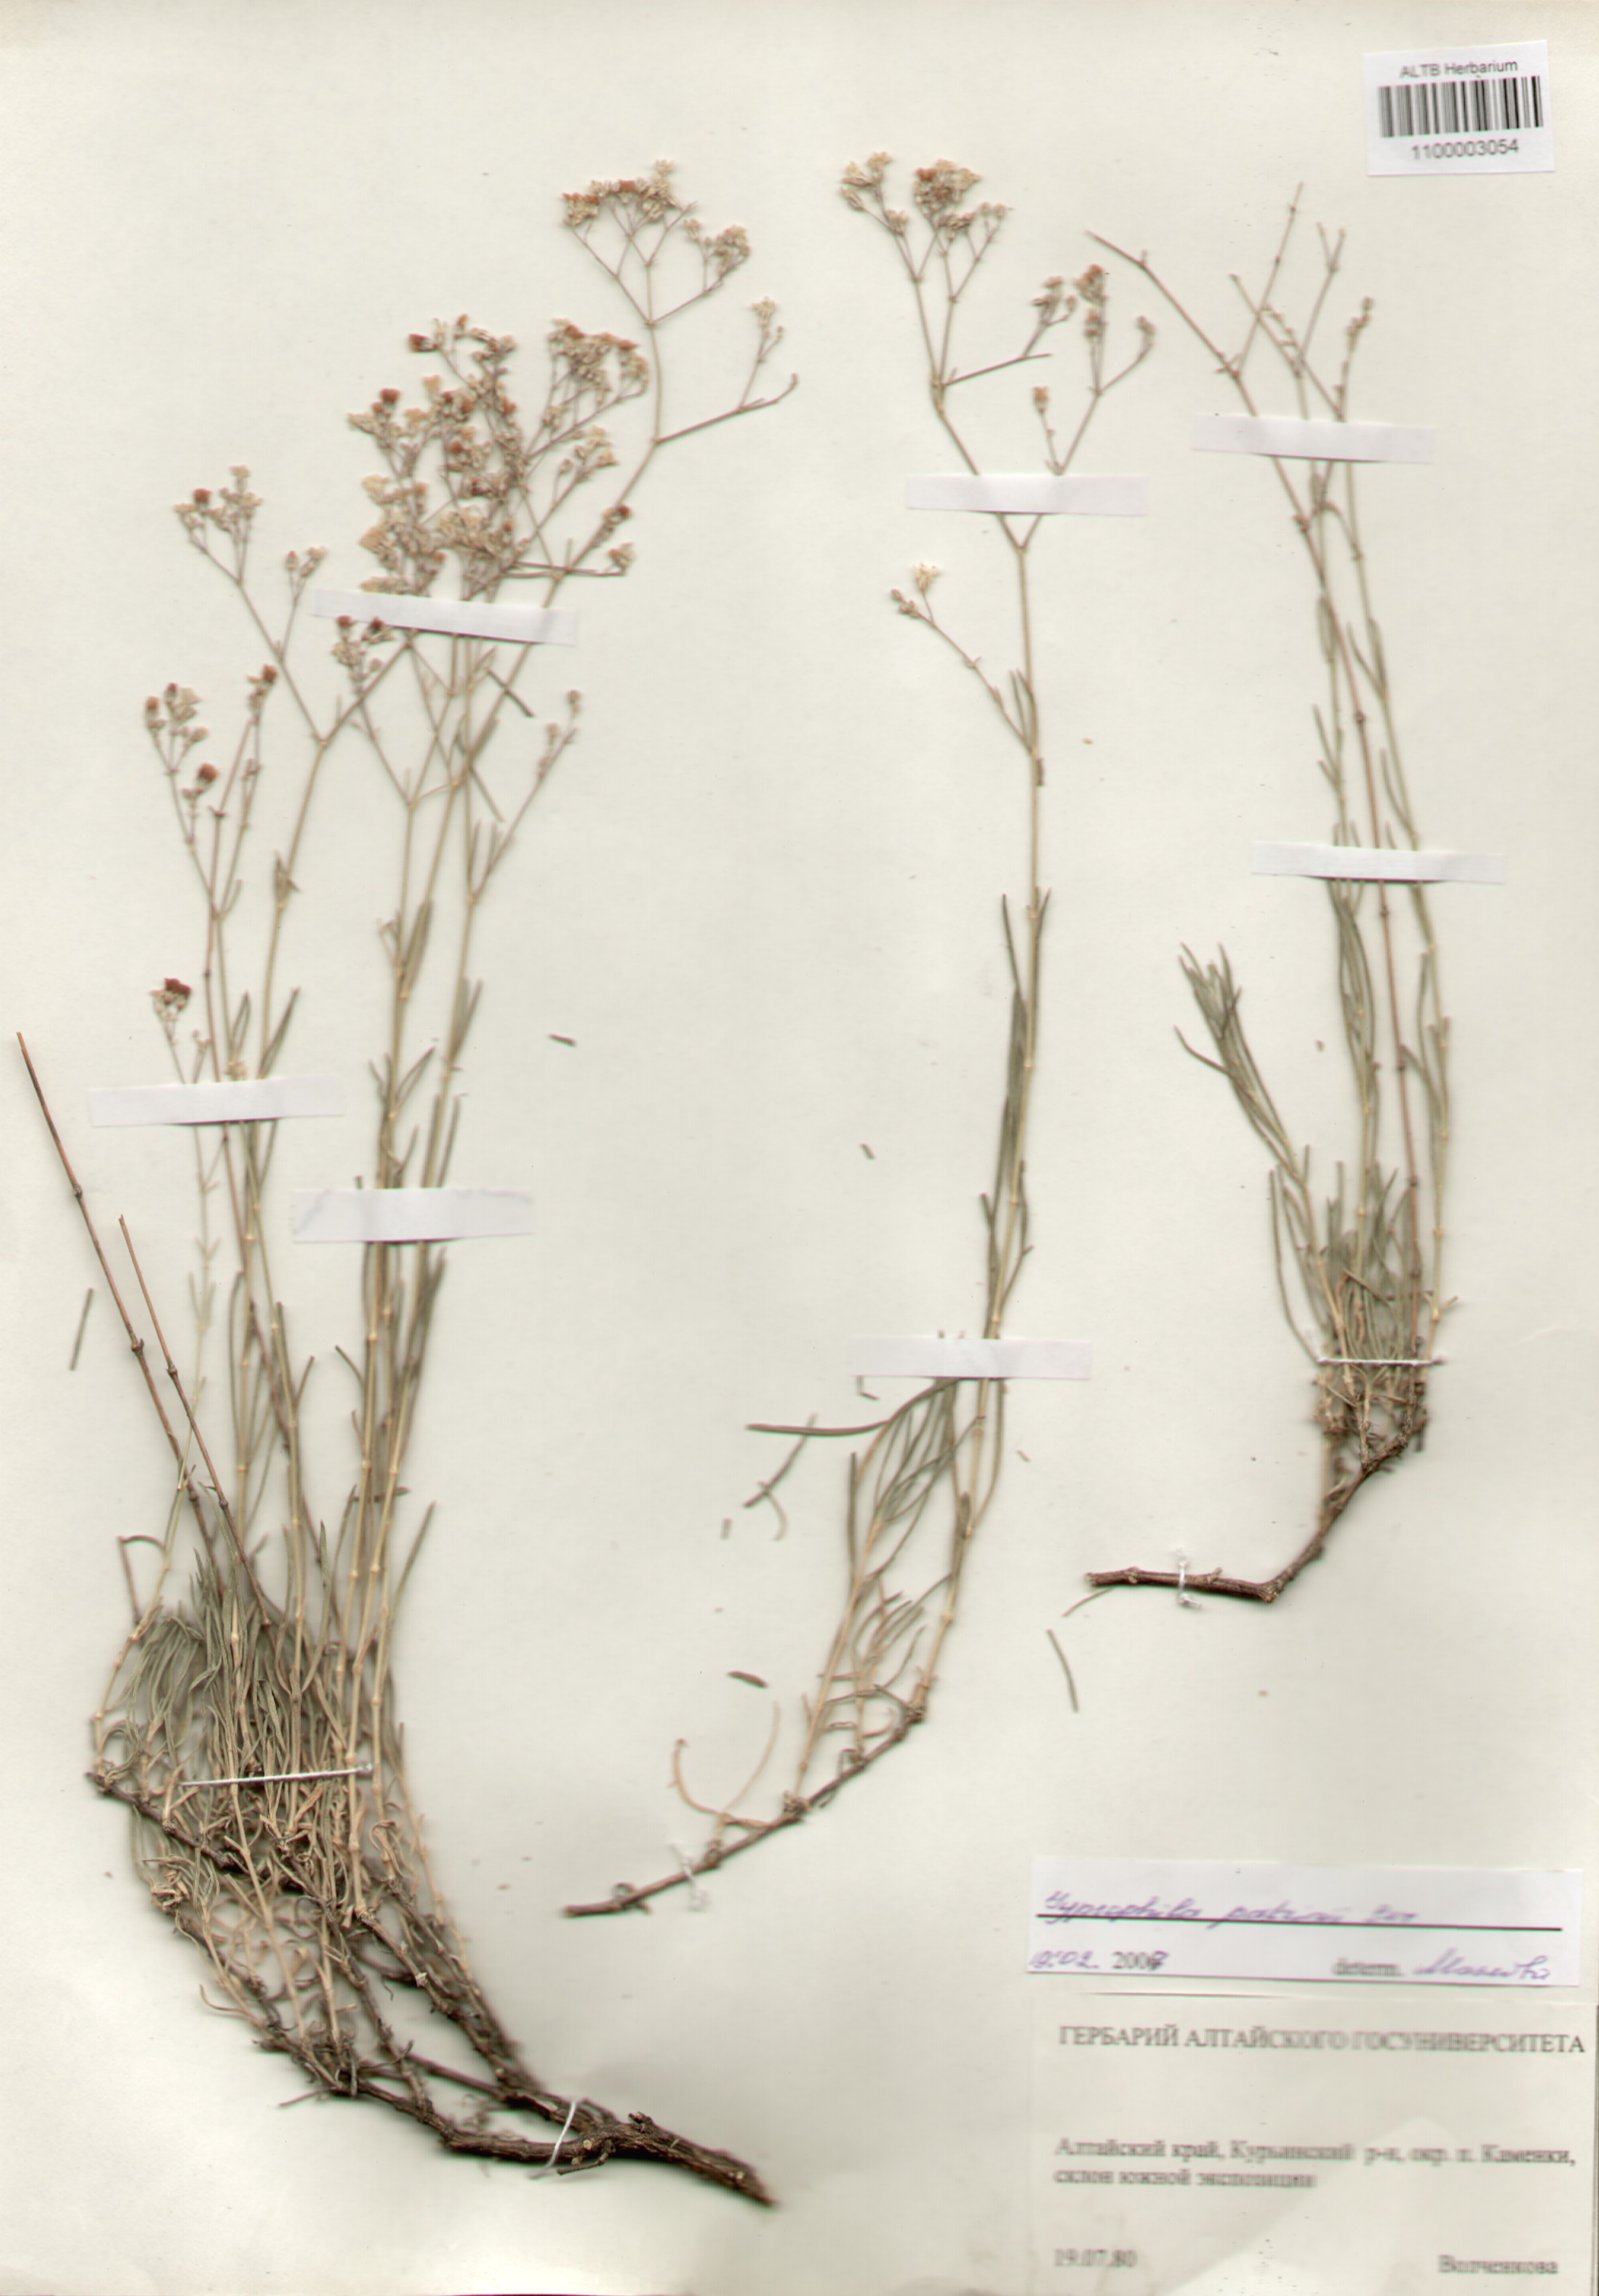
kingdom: Plantae
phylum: Tracheophyta
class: Magnoliopsida
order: Caryophyllales
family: Caryophyllaceae
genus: Gypsophila
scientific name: Gypsophila patrinii
